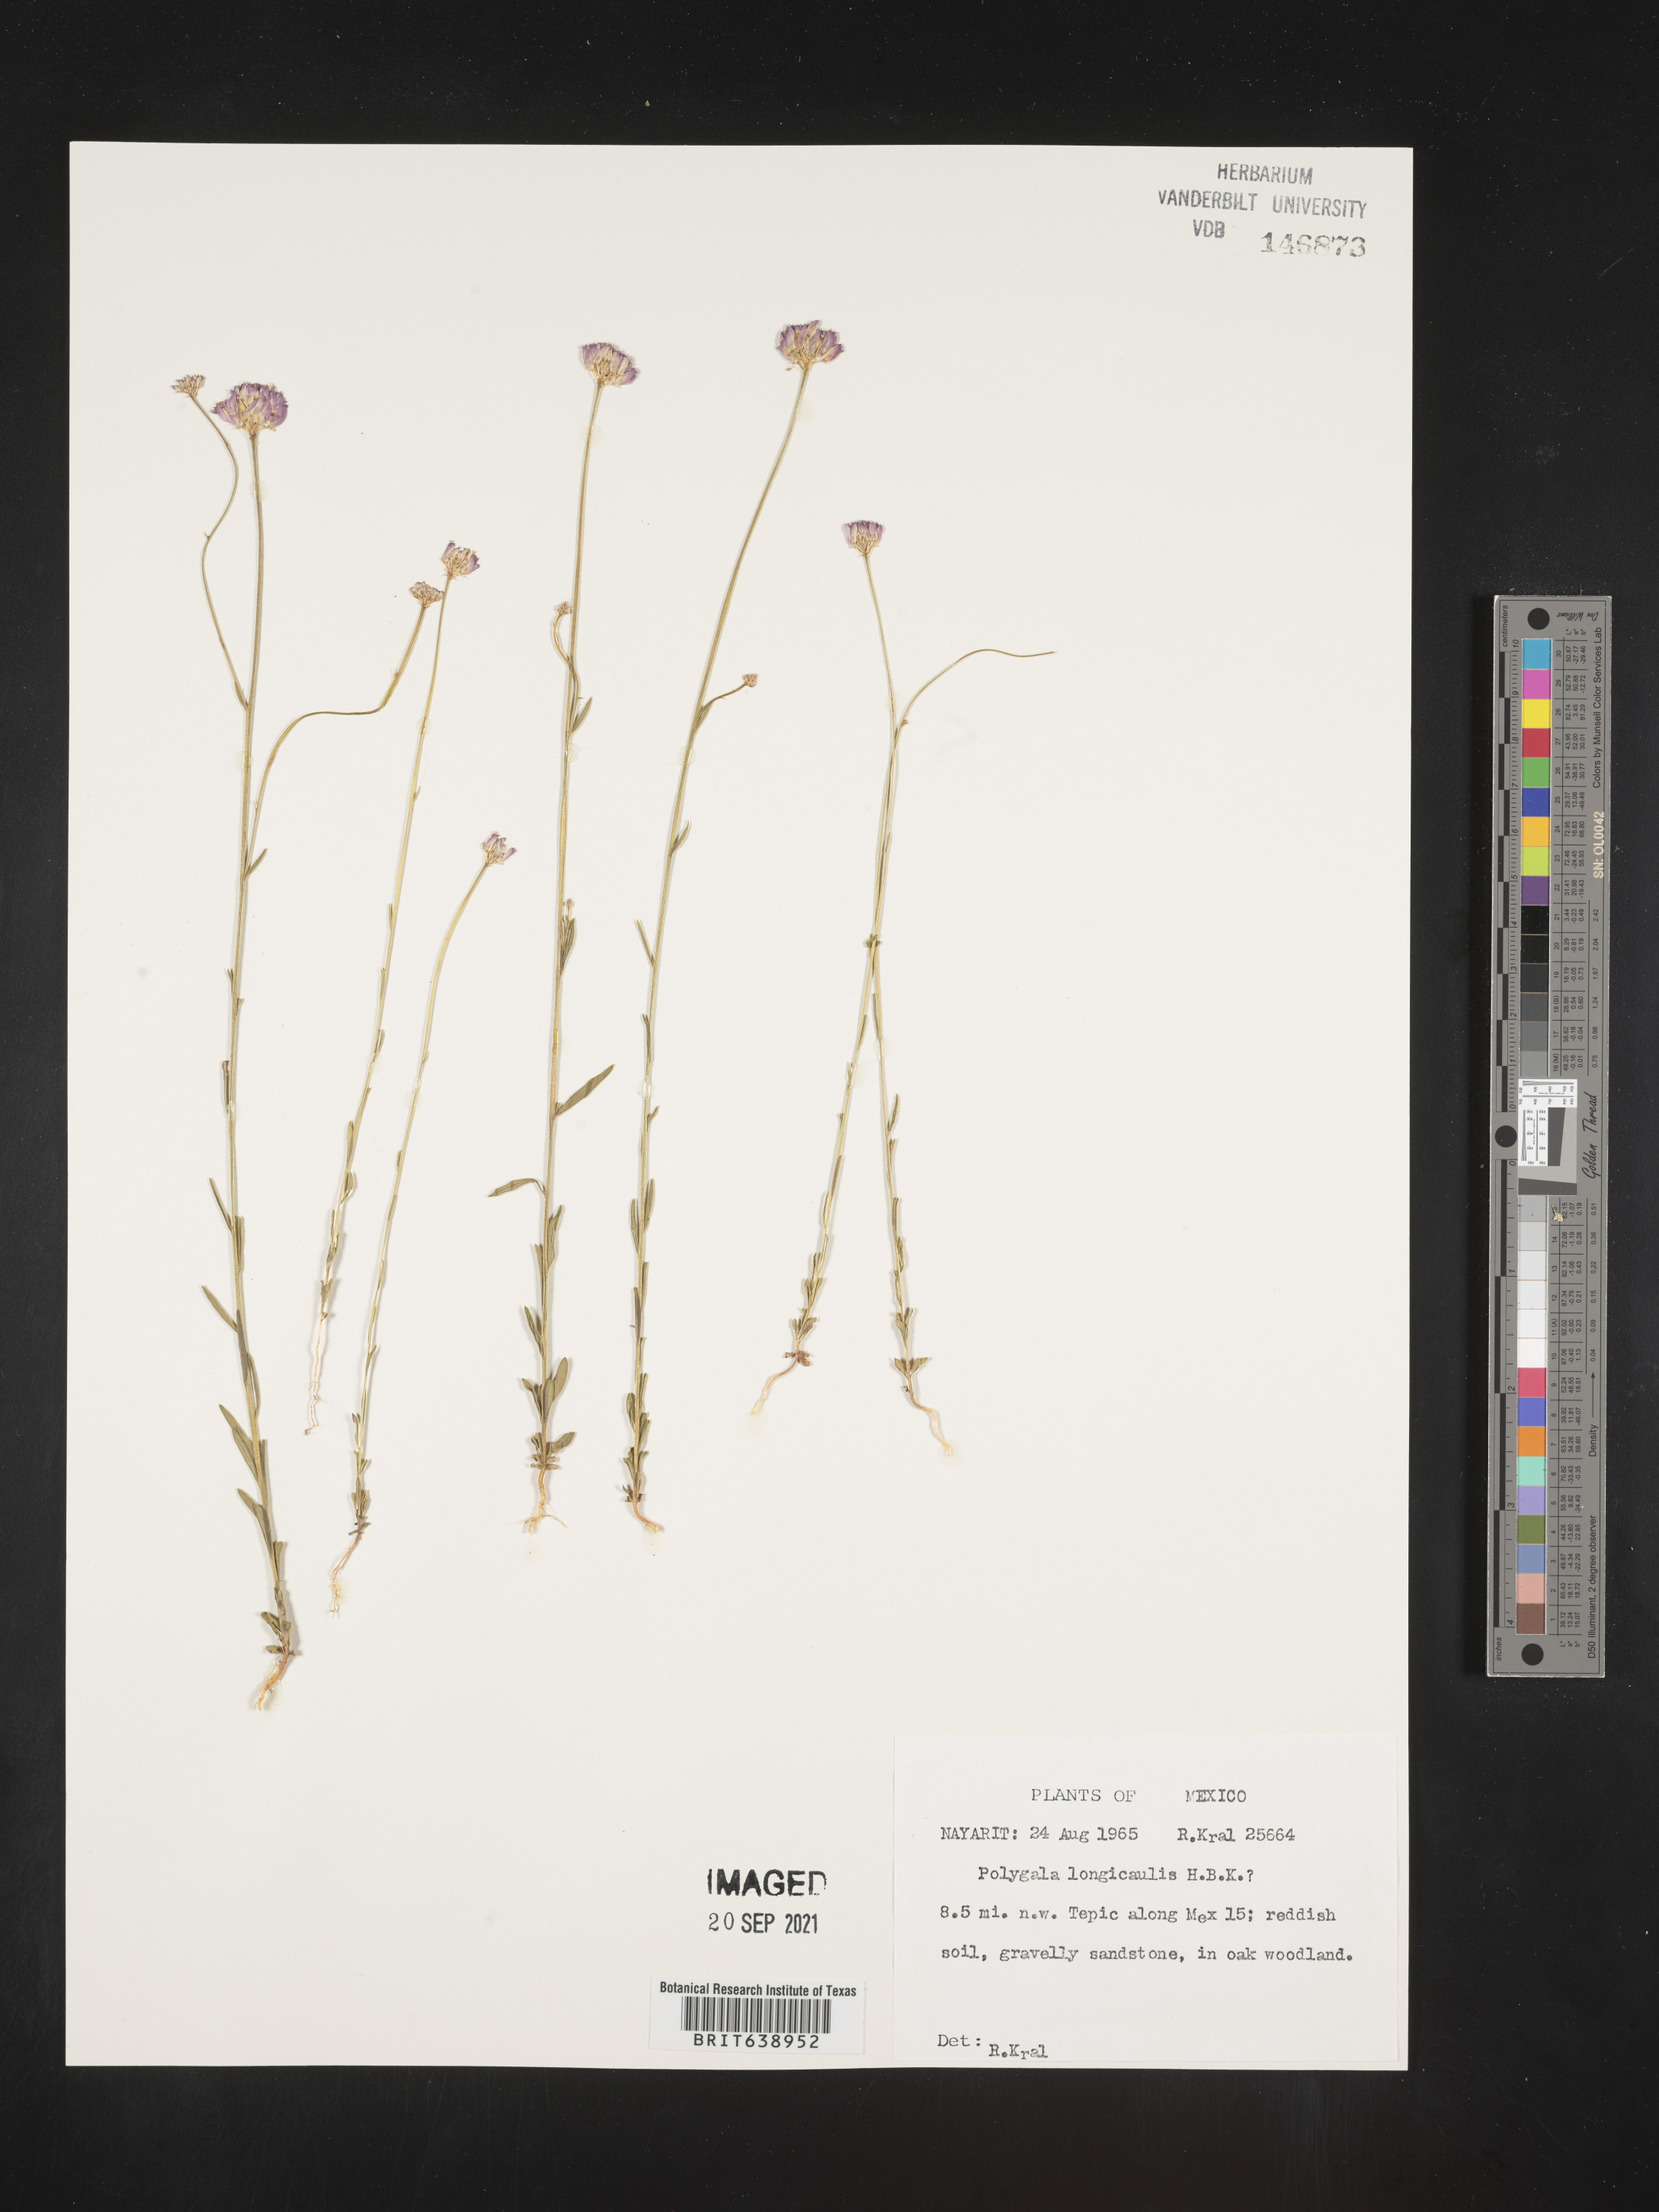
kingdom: Plantae
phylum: Tracheophyta
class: Magnoliopsida
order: Fabales
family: Polygalaceae
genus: Polygala
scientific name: Polygala
